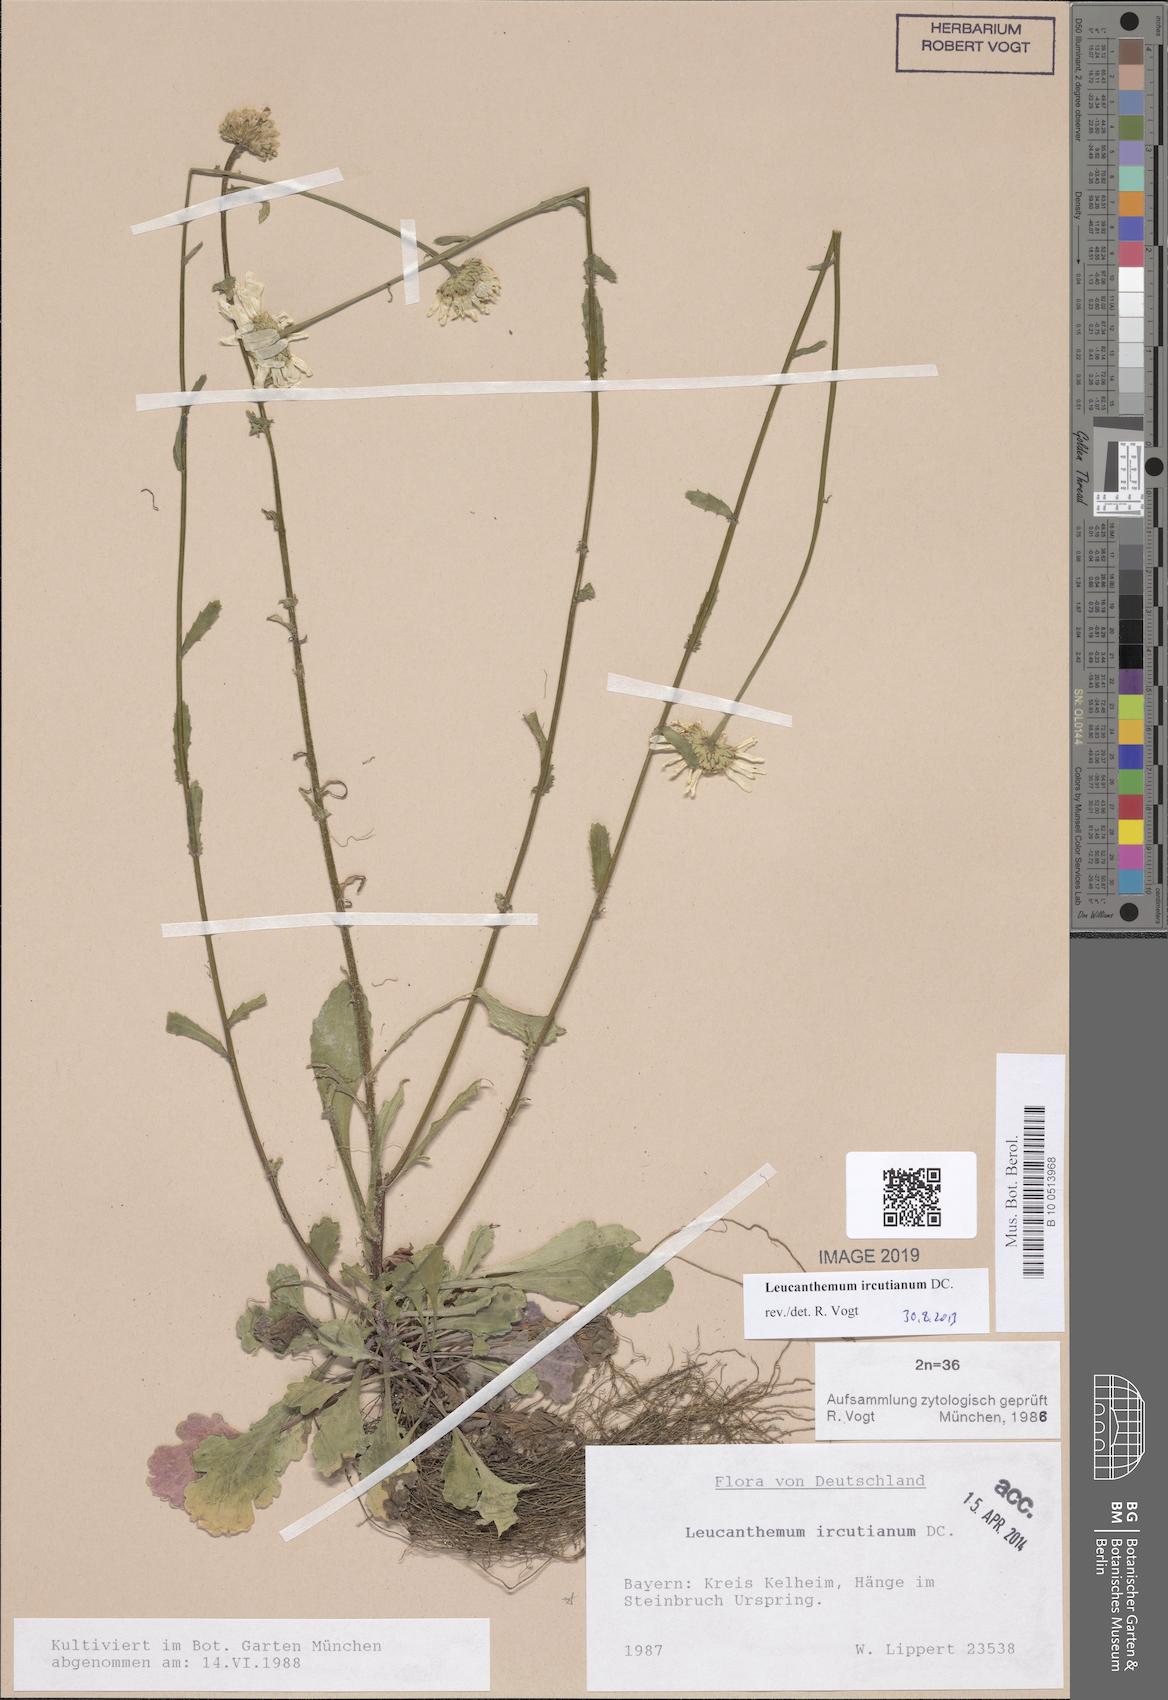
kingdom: Plantae
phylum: Tracheophyta
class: Magnoliopsida
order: Asterales
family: Asteraceae
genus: Leucanthemum
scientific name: Leucanthemum ircutianum
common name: Daisy
